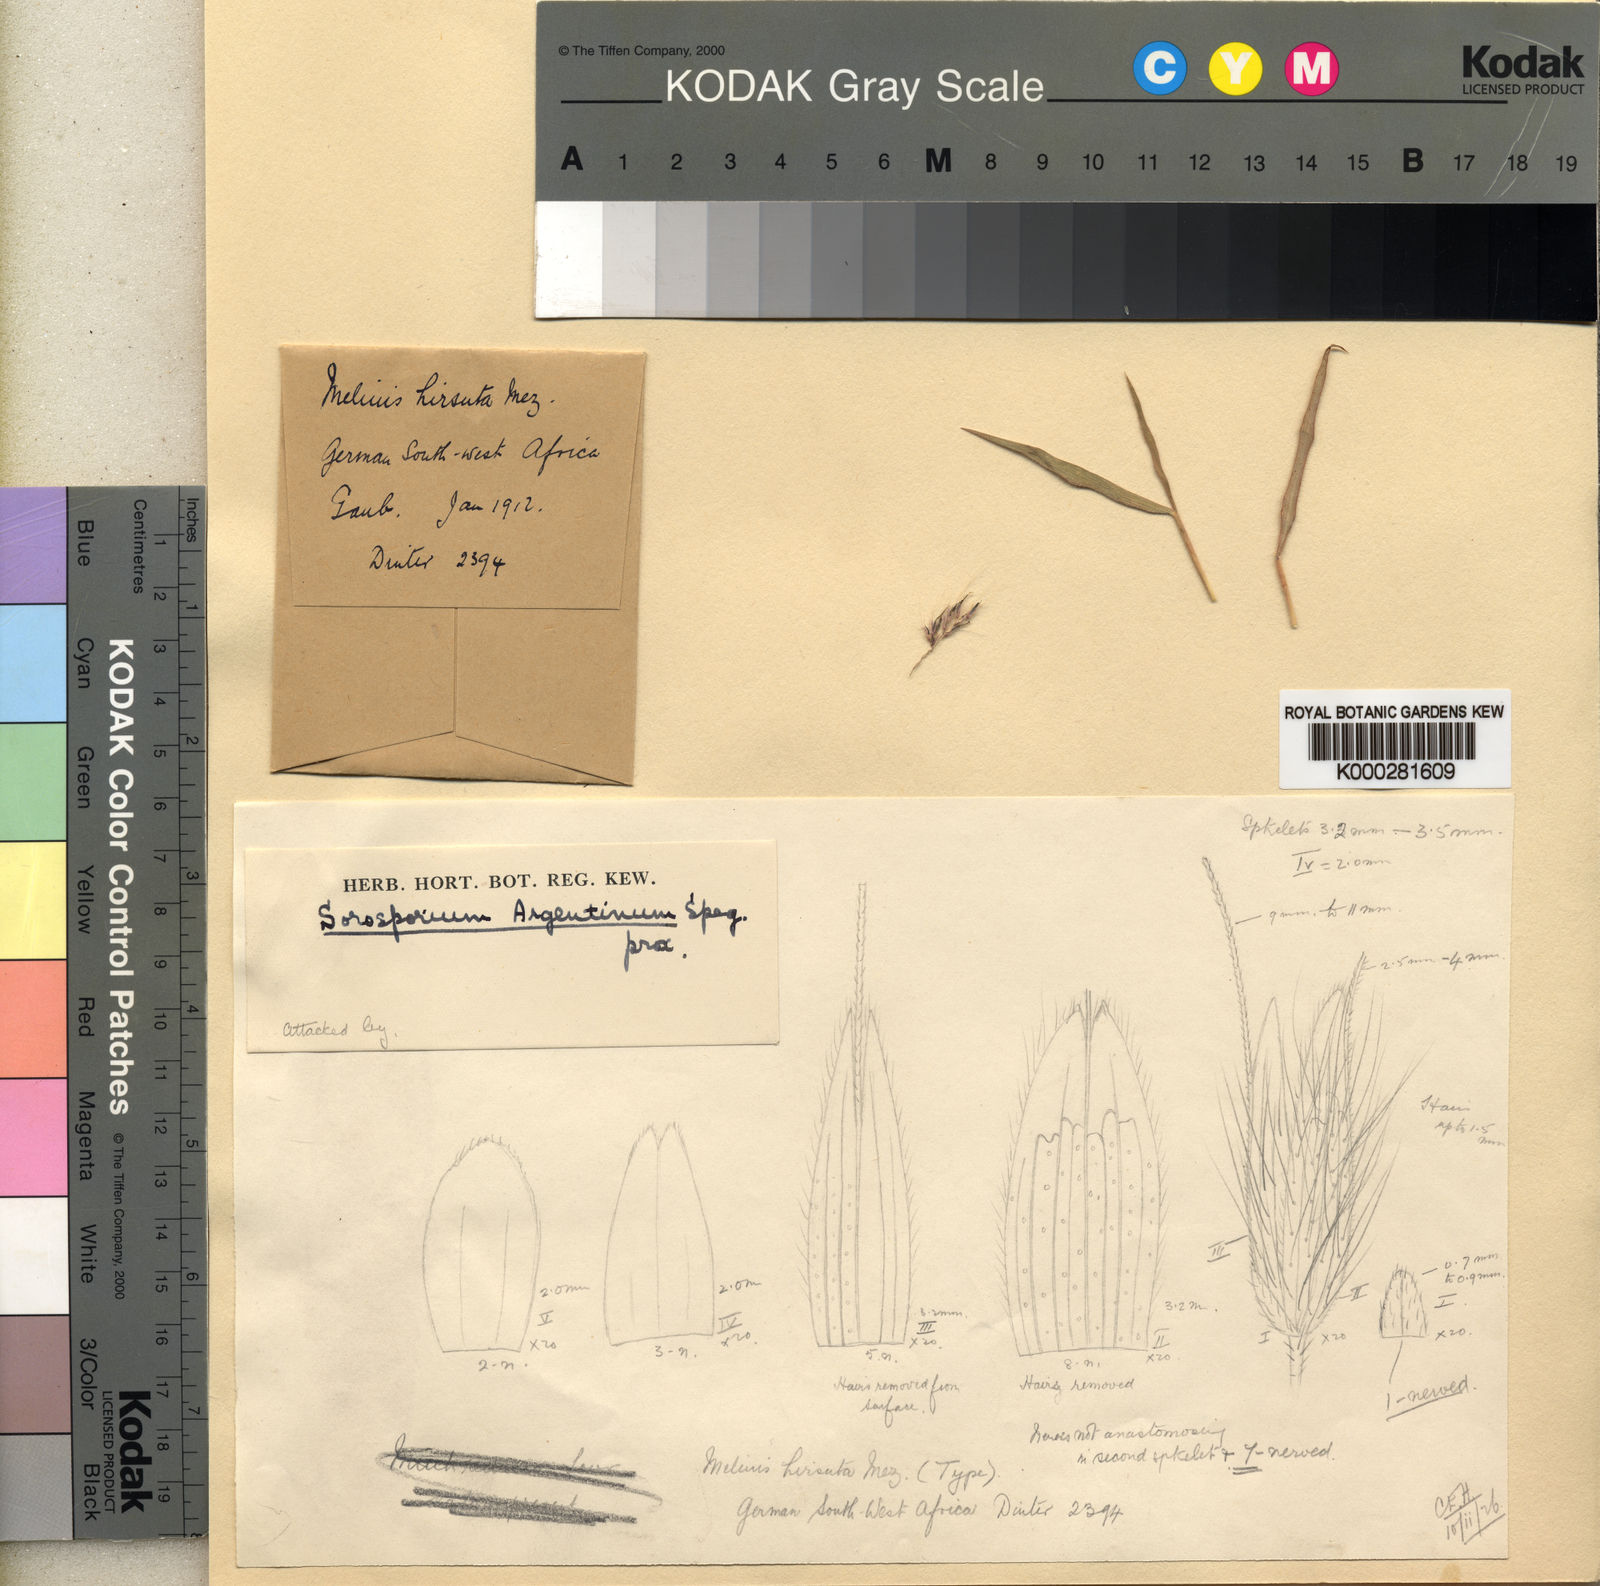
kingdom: Plantae
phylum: Tracheophyta
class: Liliopsida
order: Poales
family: Poaceae
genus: Melinis
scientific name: Melinis ambigua
